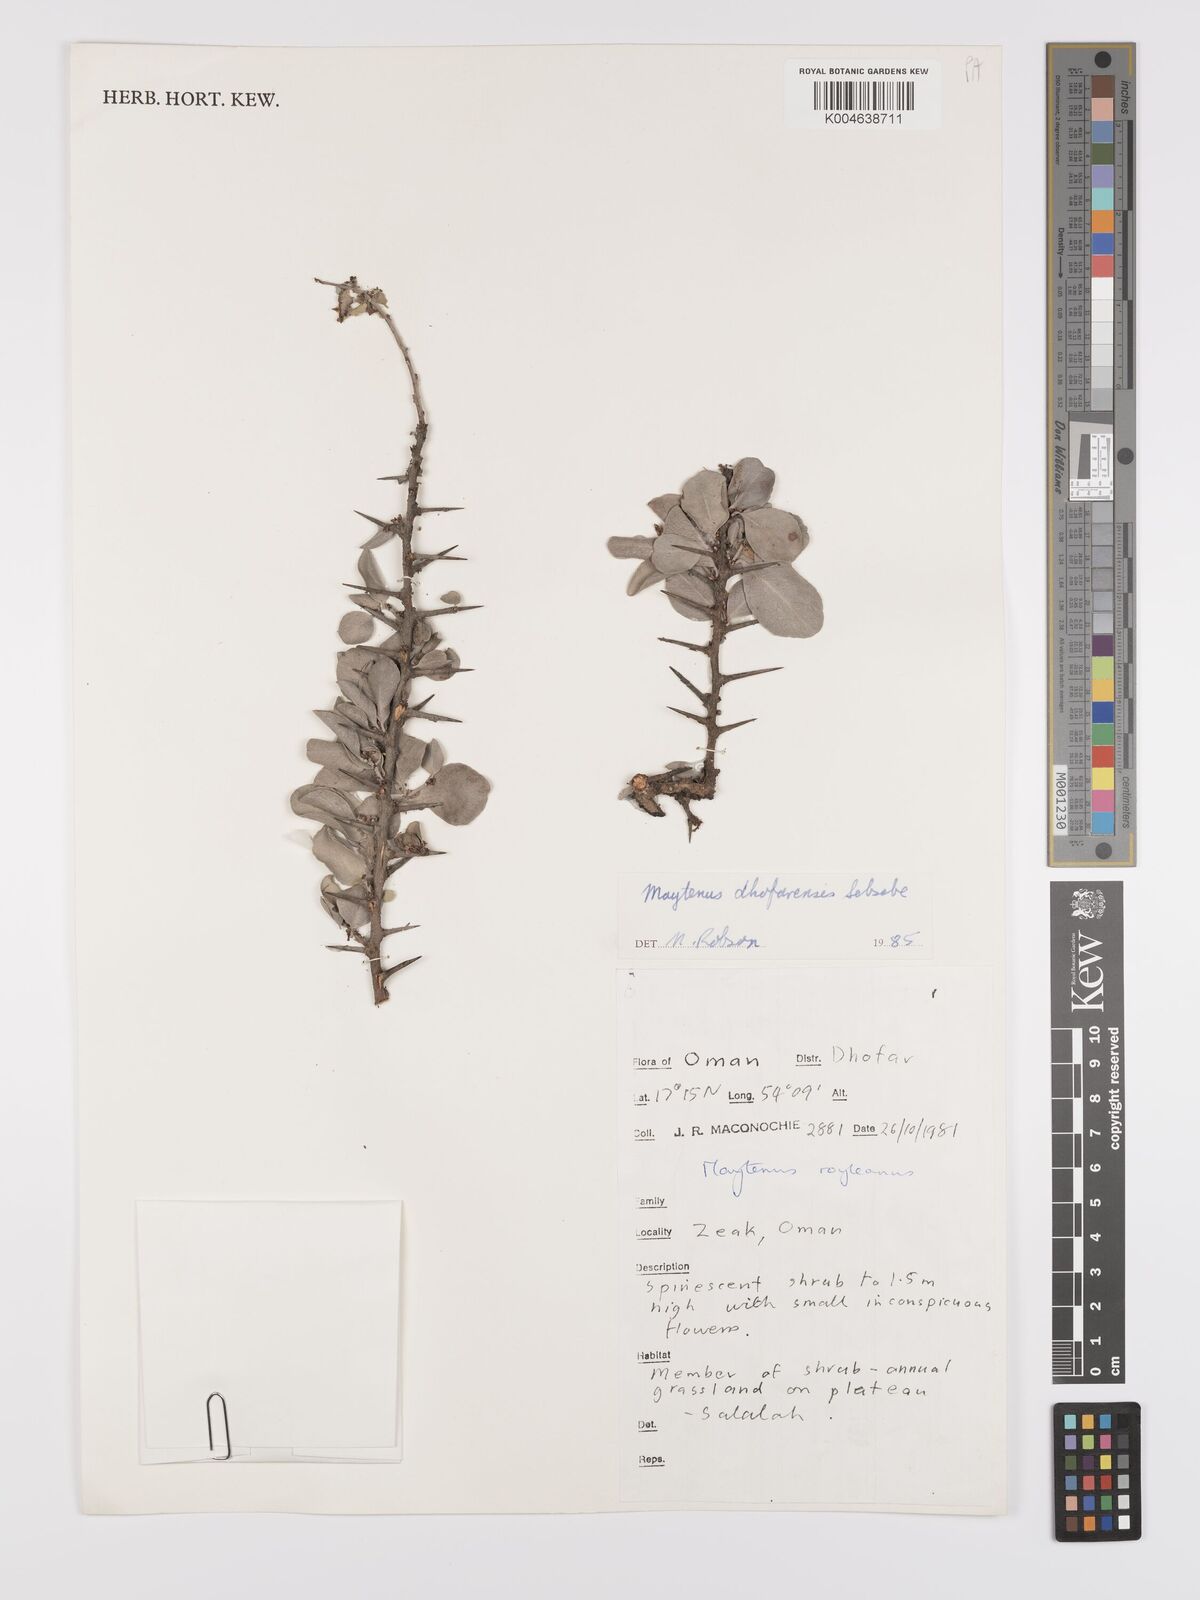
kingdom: Plantae
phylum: Tracheophyta
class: Magnoliopsida
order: Celastrales
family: Celastraceae
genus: Gymnosporia
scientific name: Gymnosporia dhofarensis
